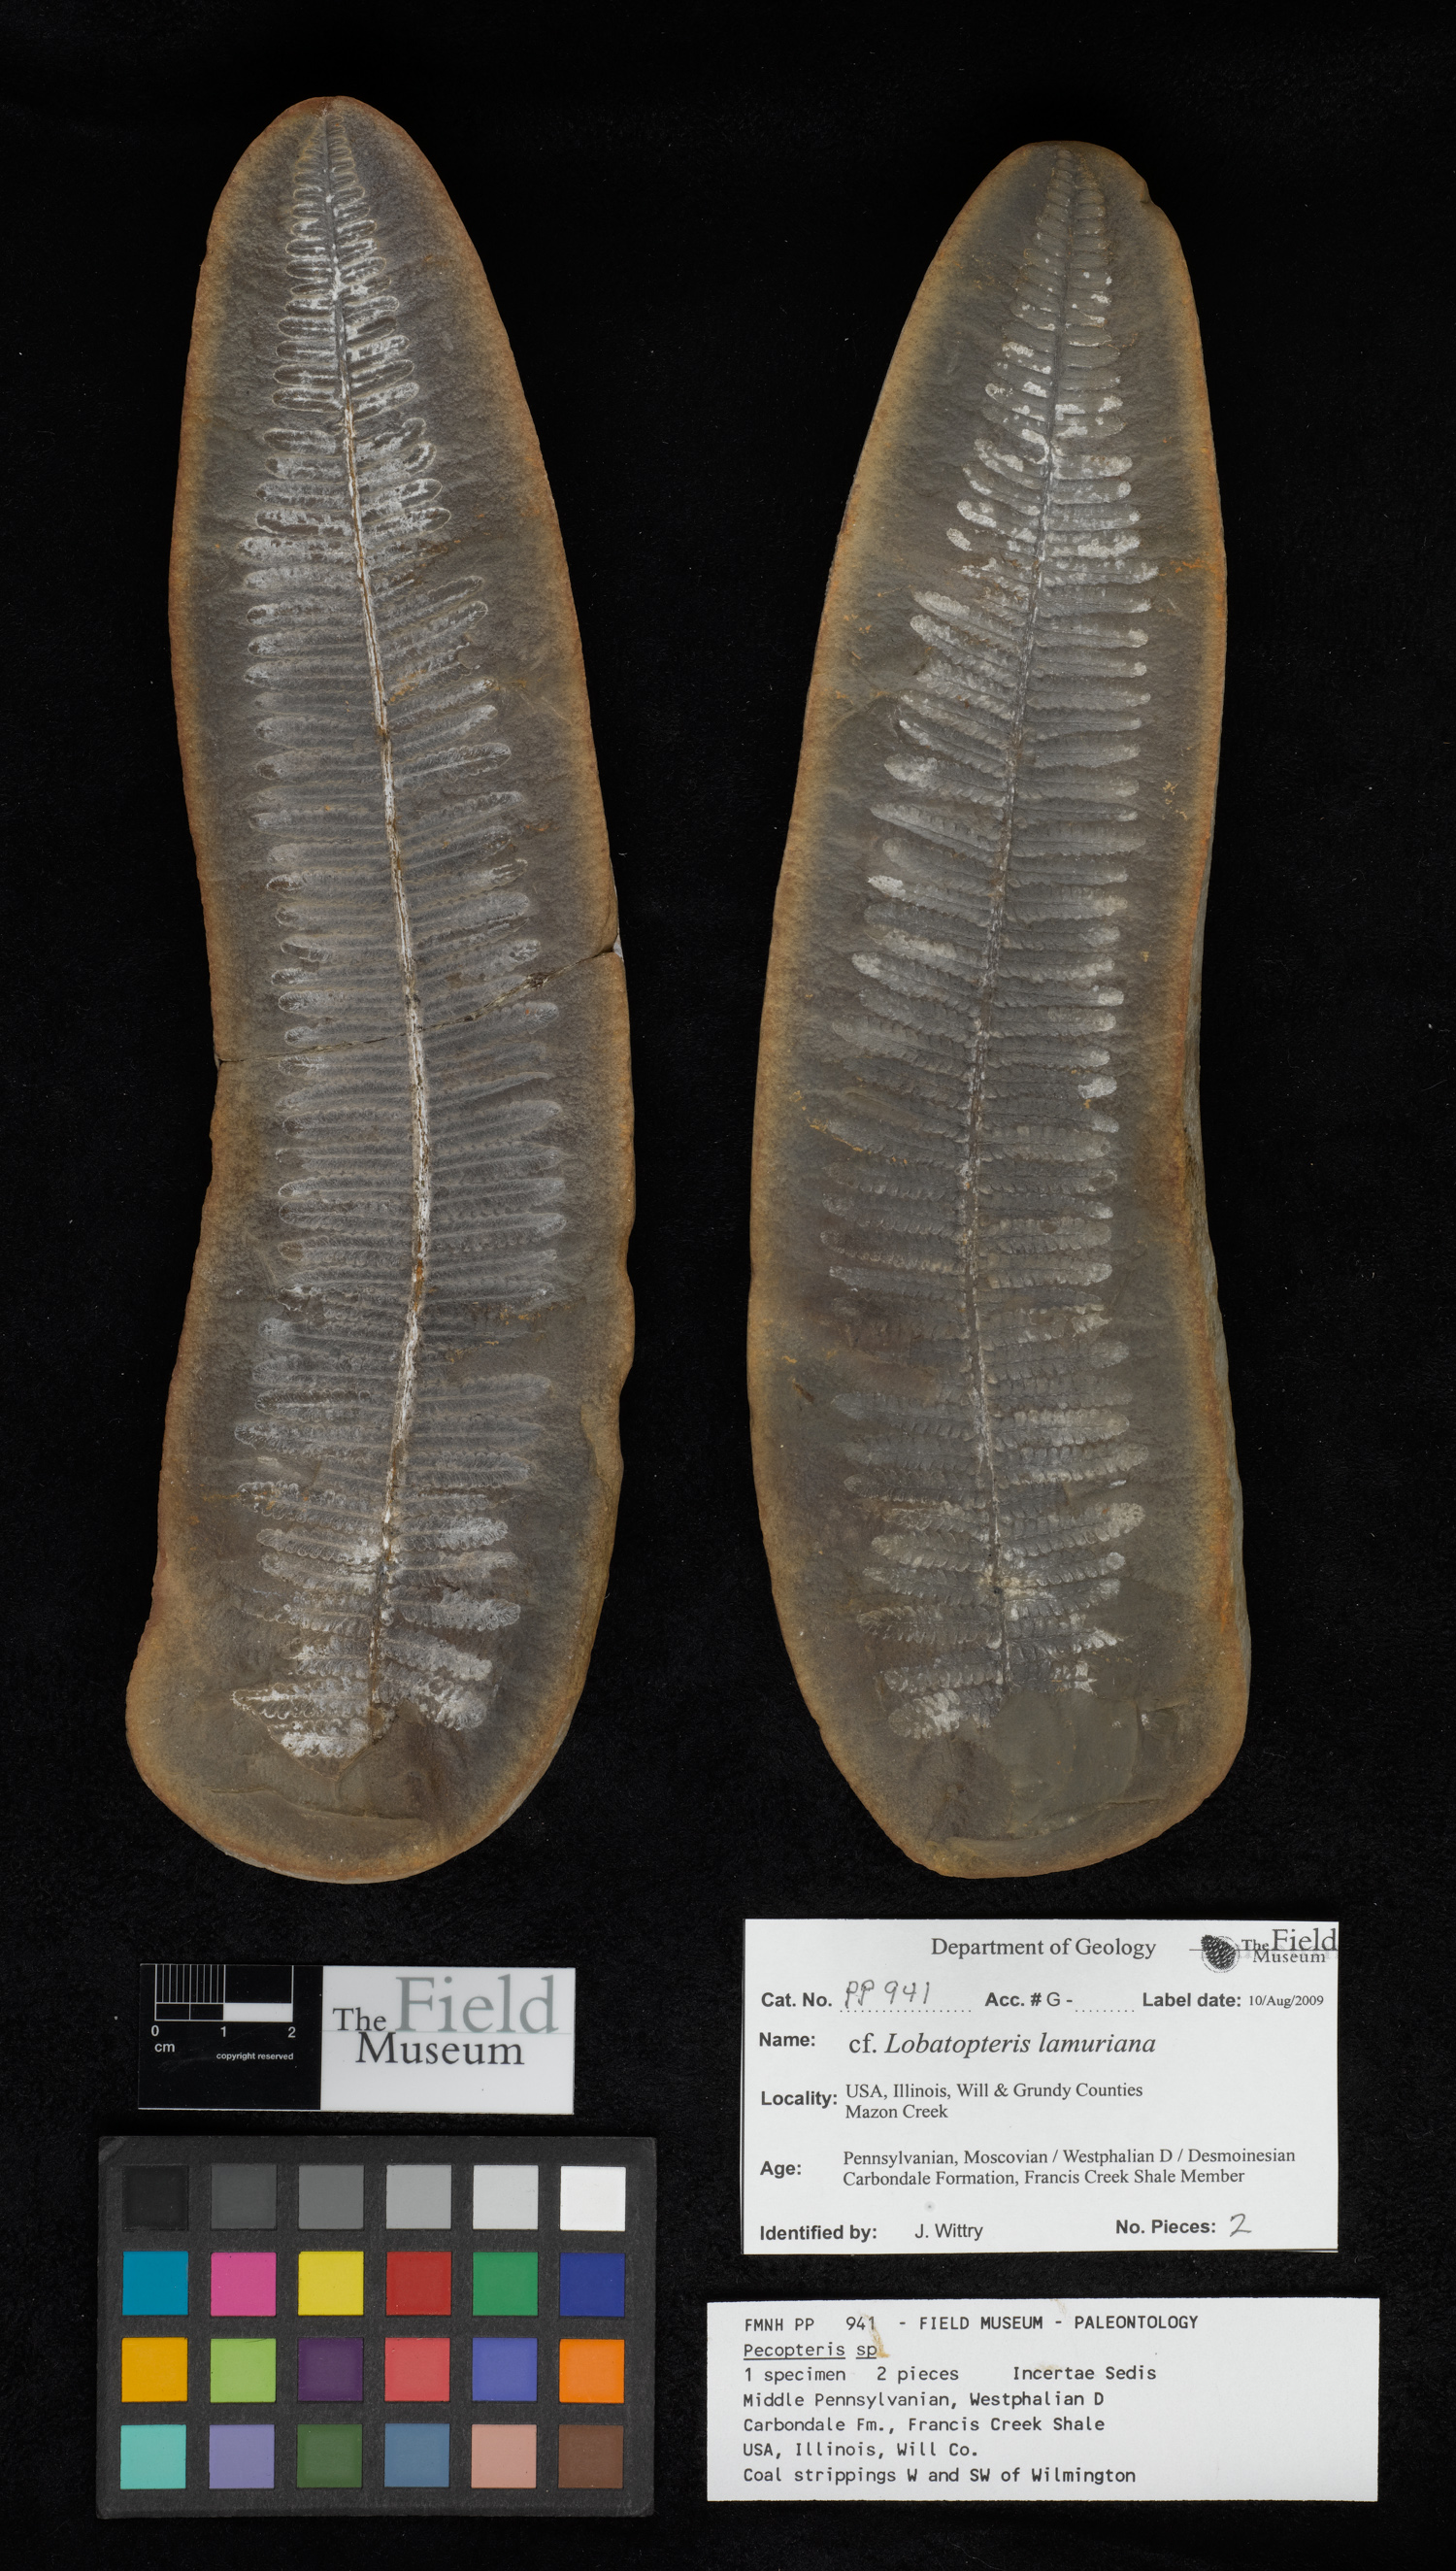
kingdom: Plantae
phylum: Tracheophyta
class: Polypodiopsida
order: Marattiales
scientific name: Marattiales
